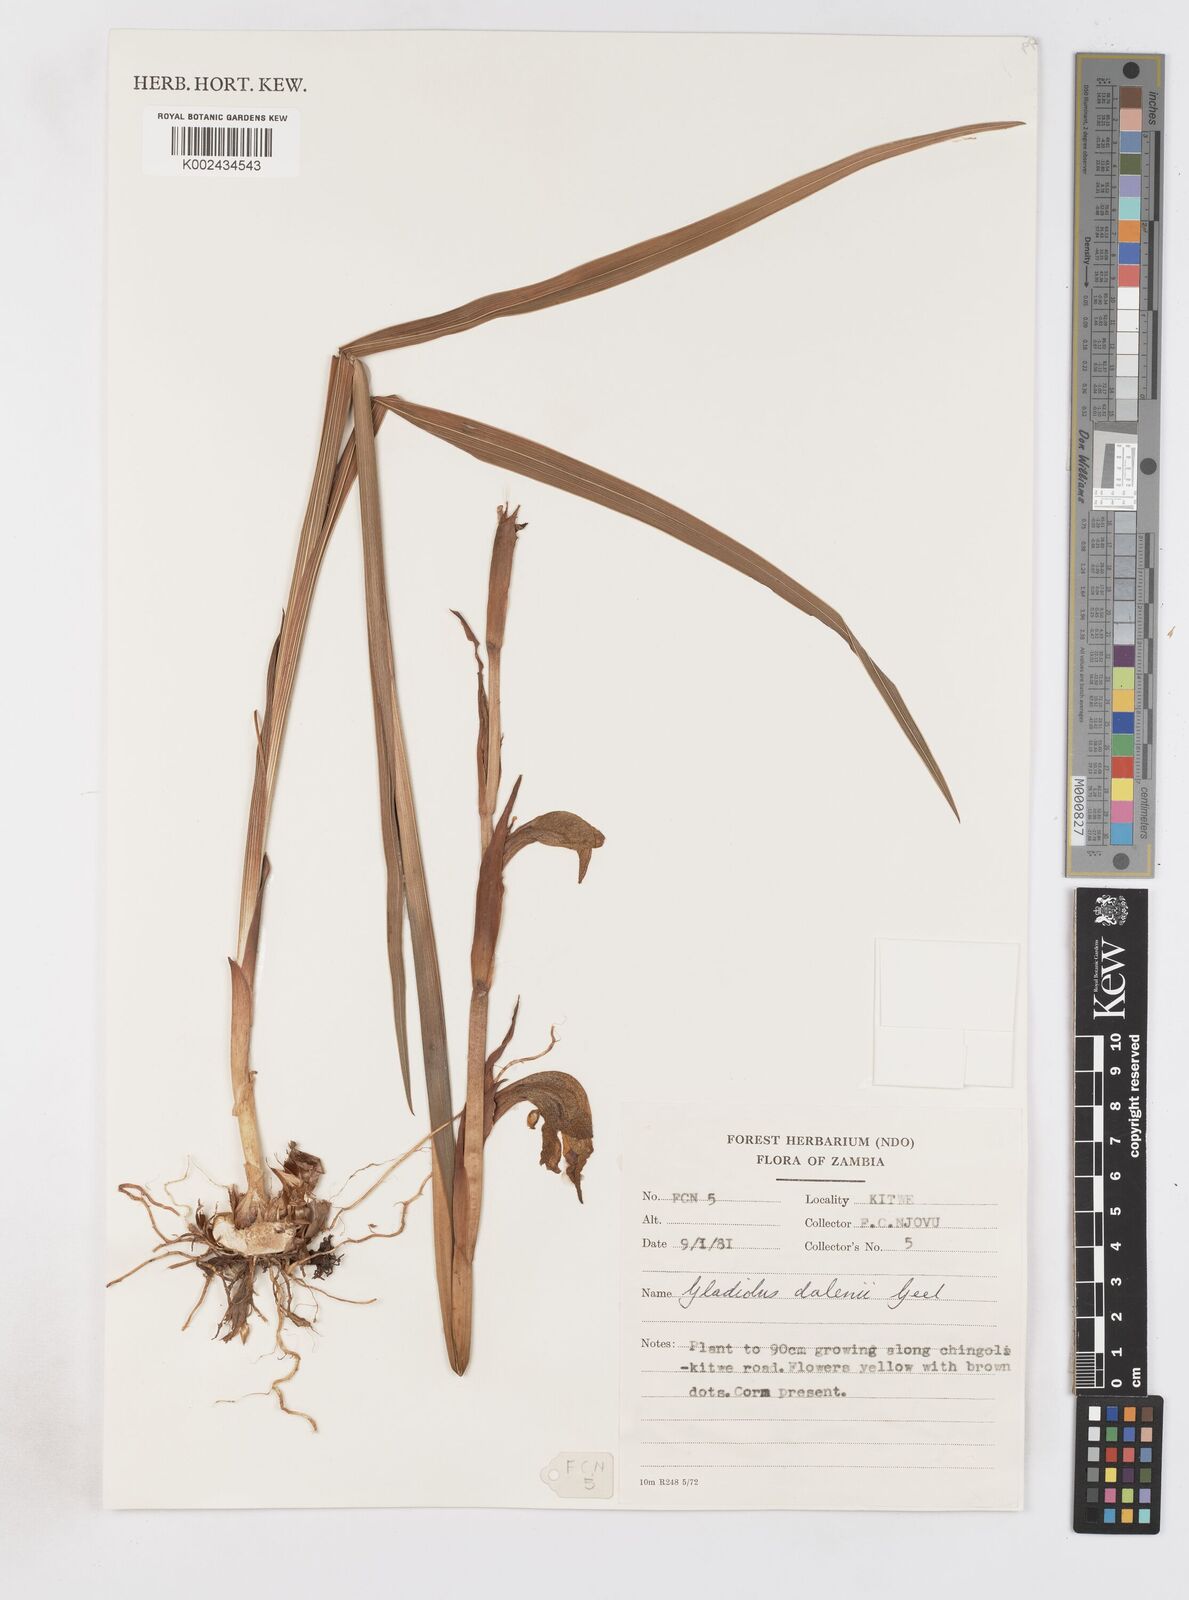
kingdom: Plantae
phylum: Tracheophyta
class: Liliopsida
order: Asparagales
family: Iridaceae
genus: Gladiolus
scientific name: Gladiolus dalenii
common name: Cornflag
